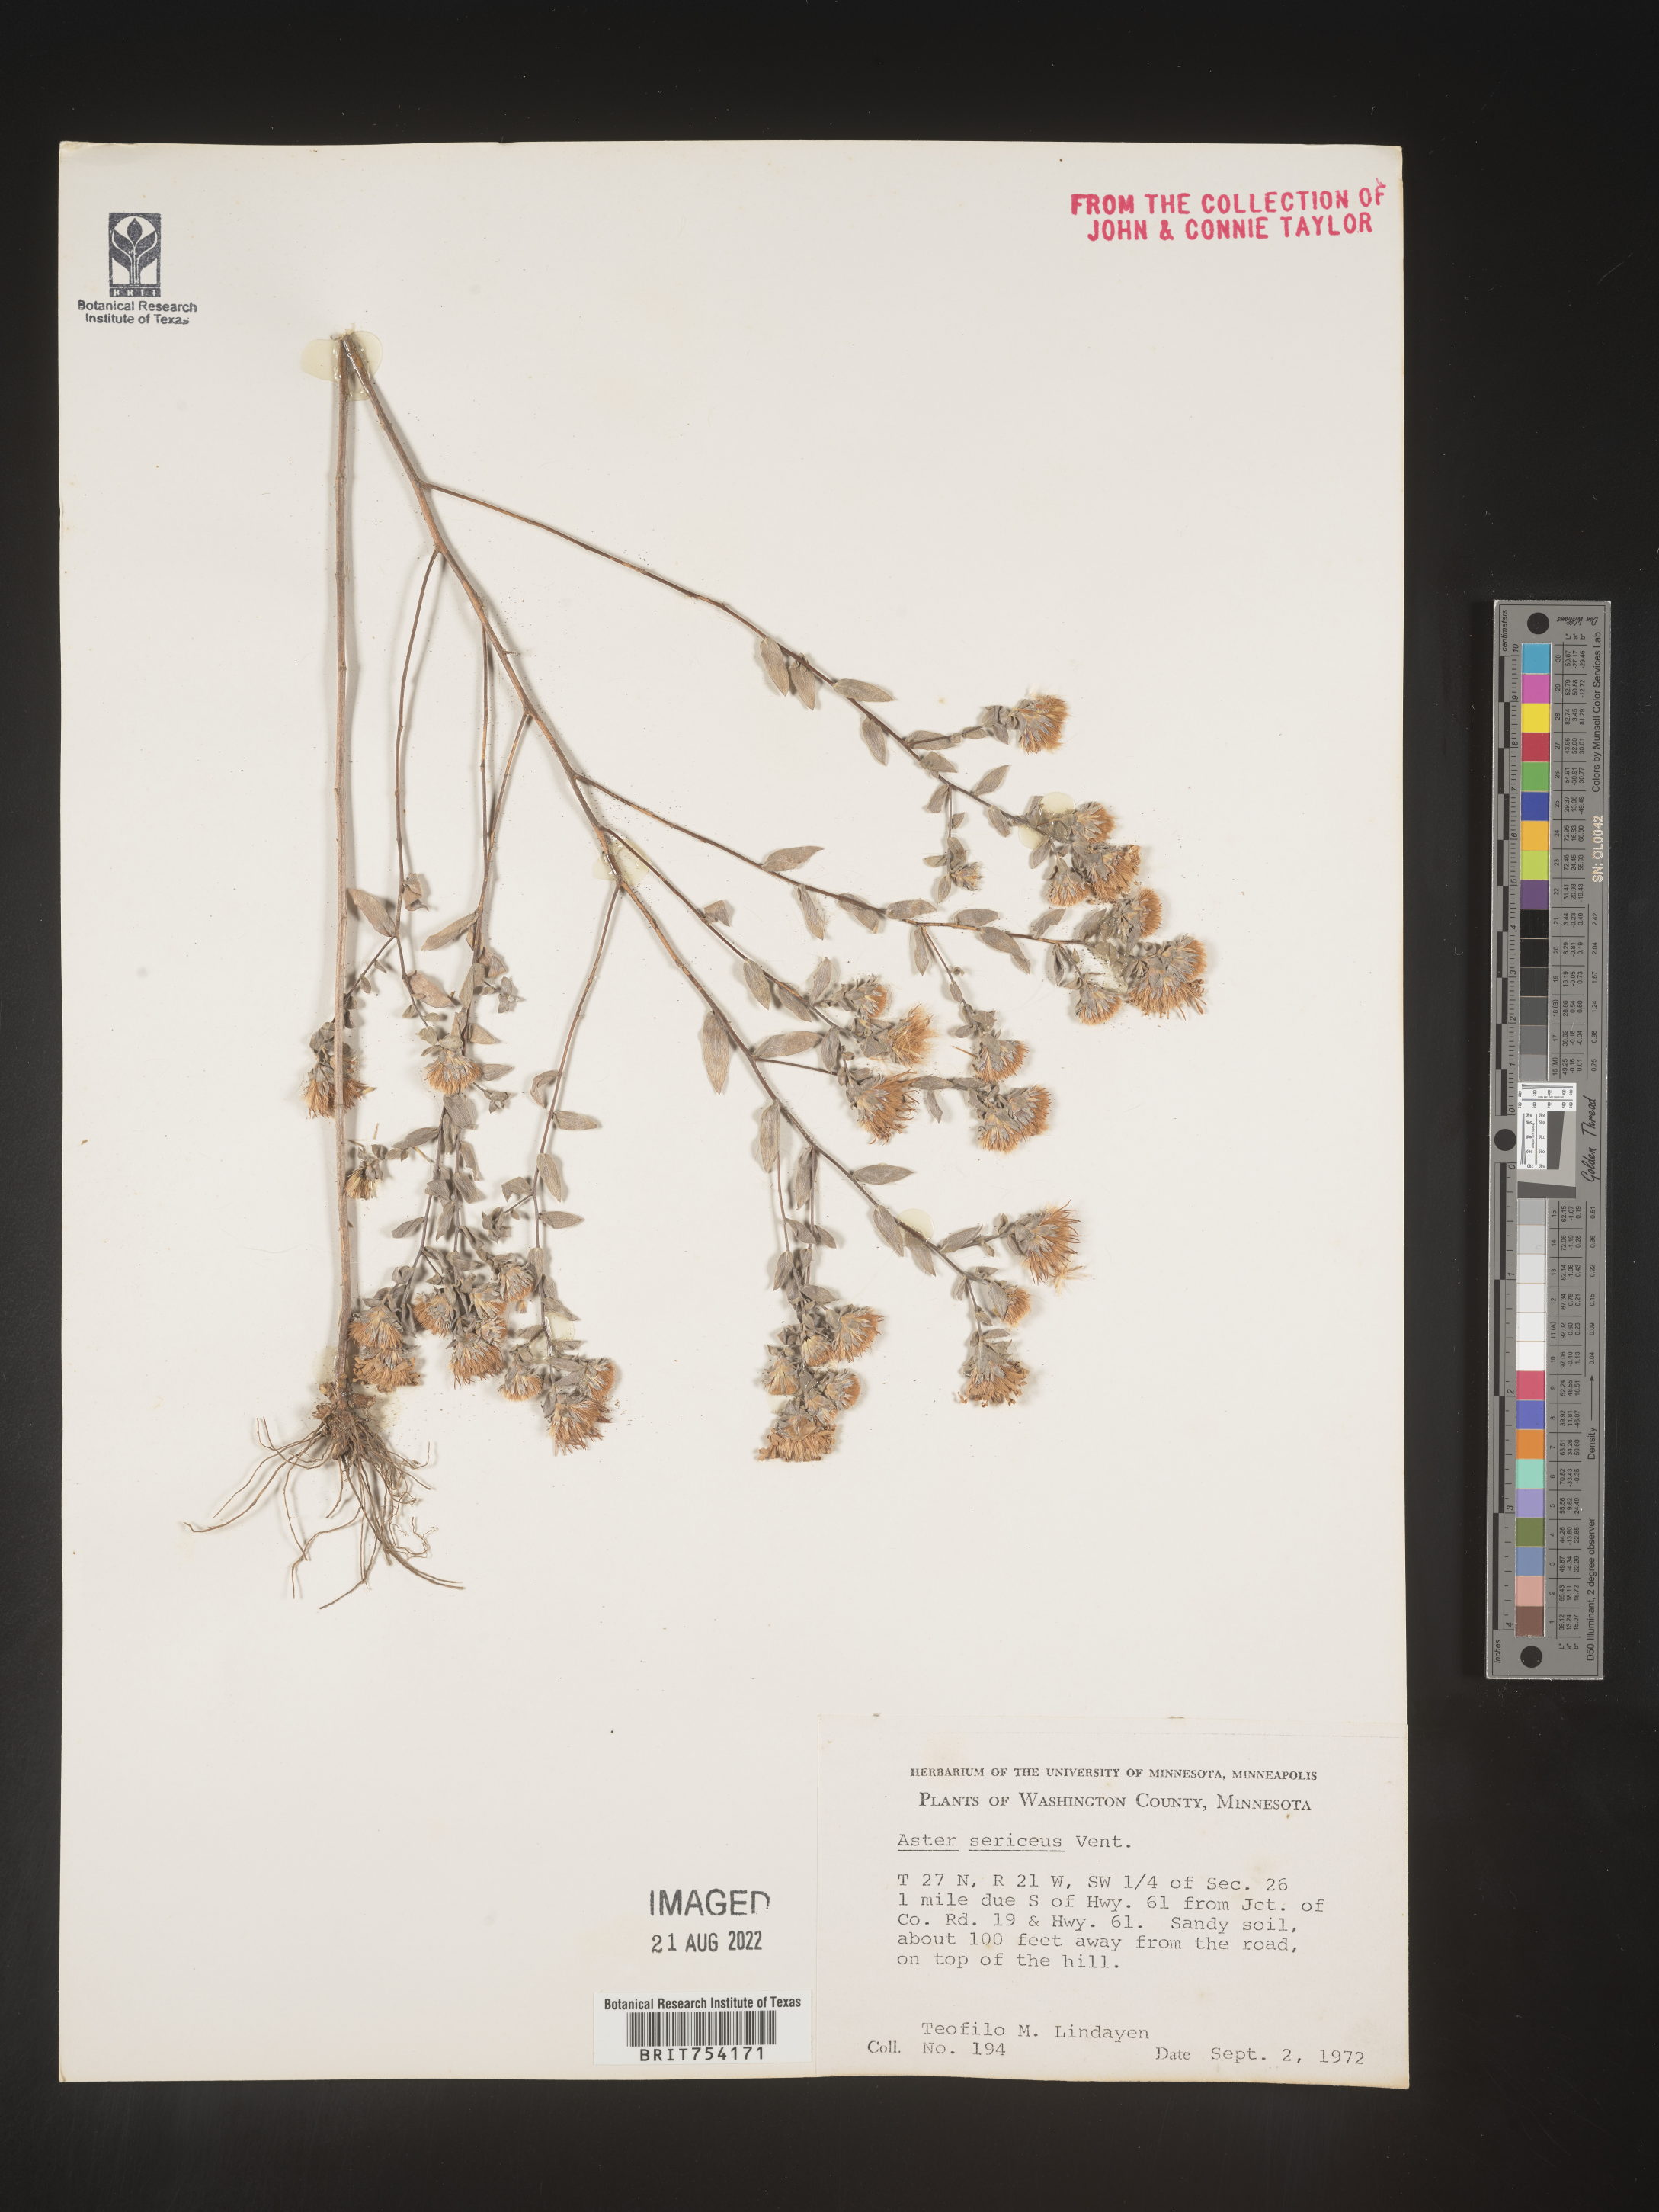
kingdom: Plantae
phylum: Tracheophyta
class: Magnoliopsida
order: Asterales
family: Asteraceae
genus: Symphyotrichum
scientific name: Symphyotrichum sericeum
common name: Silky aster
